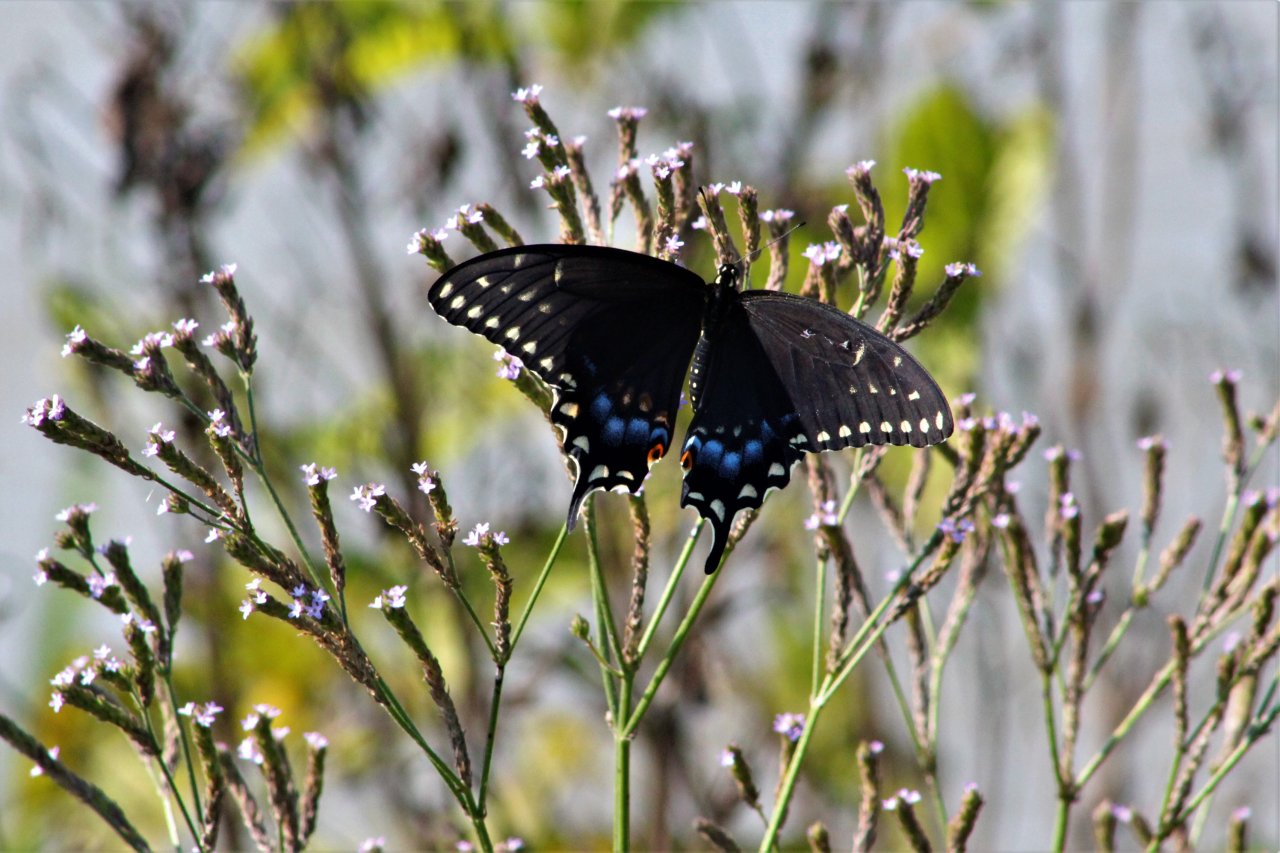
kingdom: Animalia
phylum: Arthropoda
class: Insecta
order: Lepidoptera
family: Papilionidae
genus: Papilio
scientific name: Papilio polyxenes
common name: Black Swallowtail
